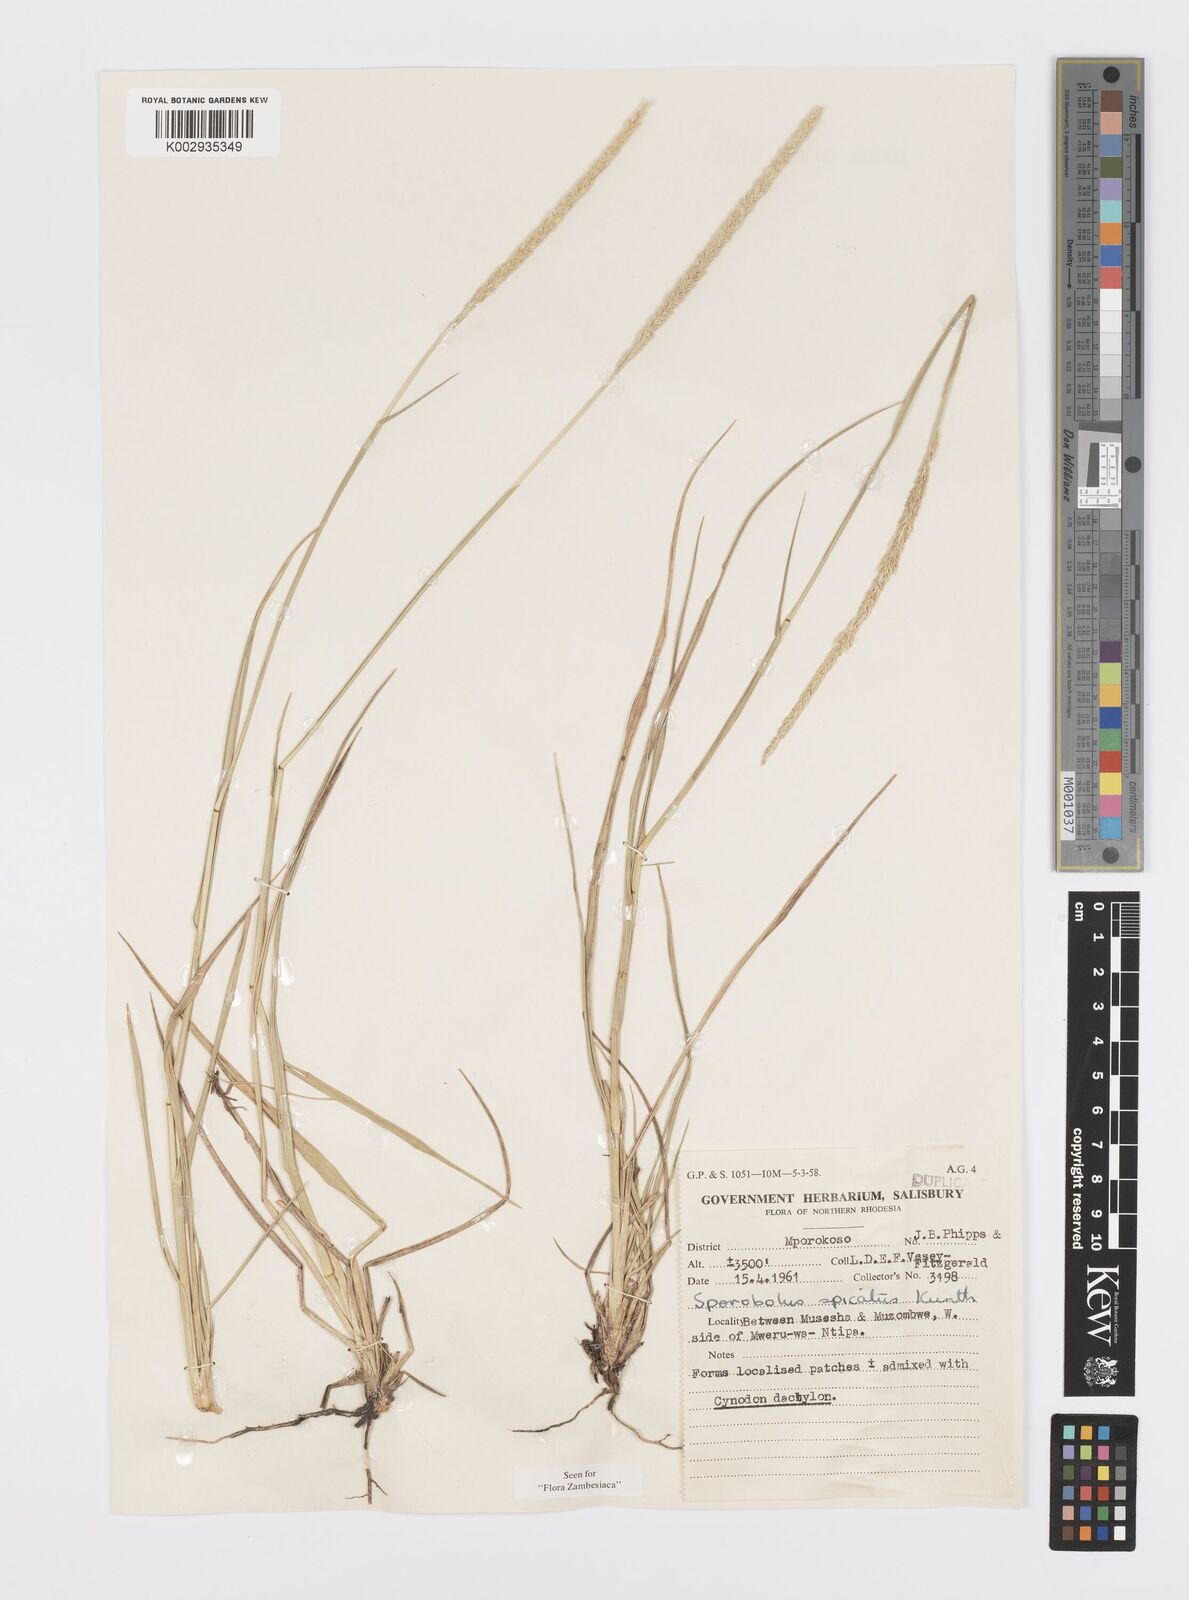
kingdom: Plantae
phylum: Tracheophyta
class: Liliopsida
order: Poales
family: Poaceae
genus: Sporobolus
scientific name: Sporobolus spicatus
